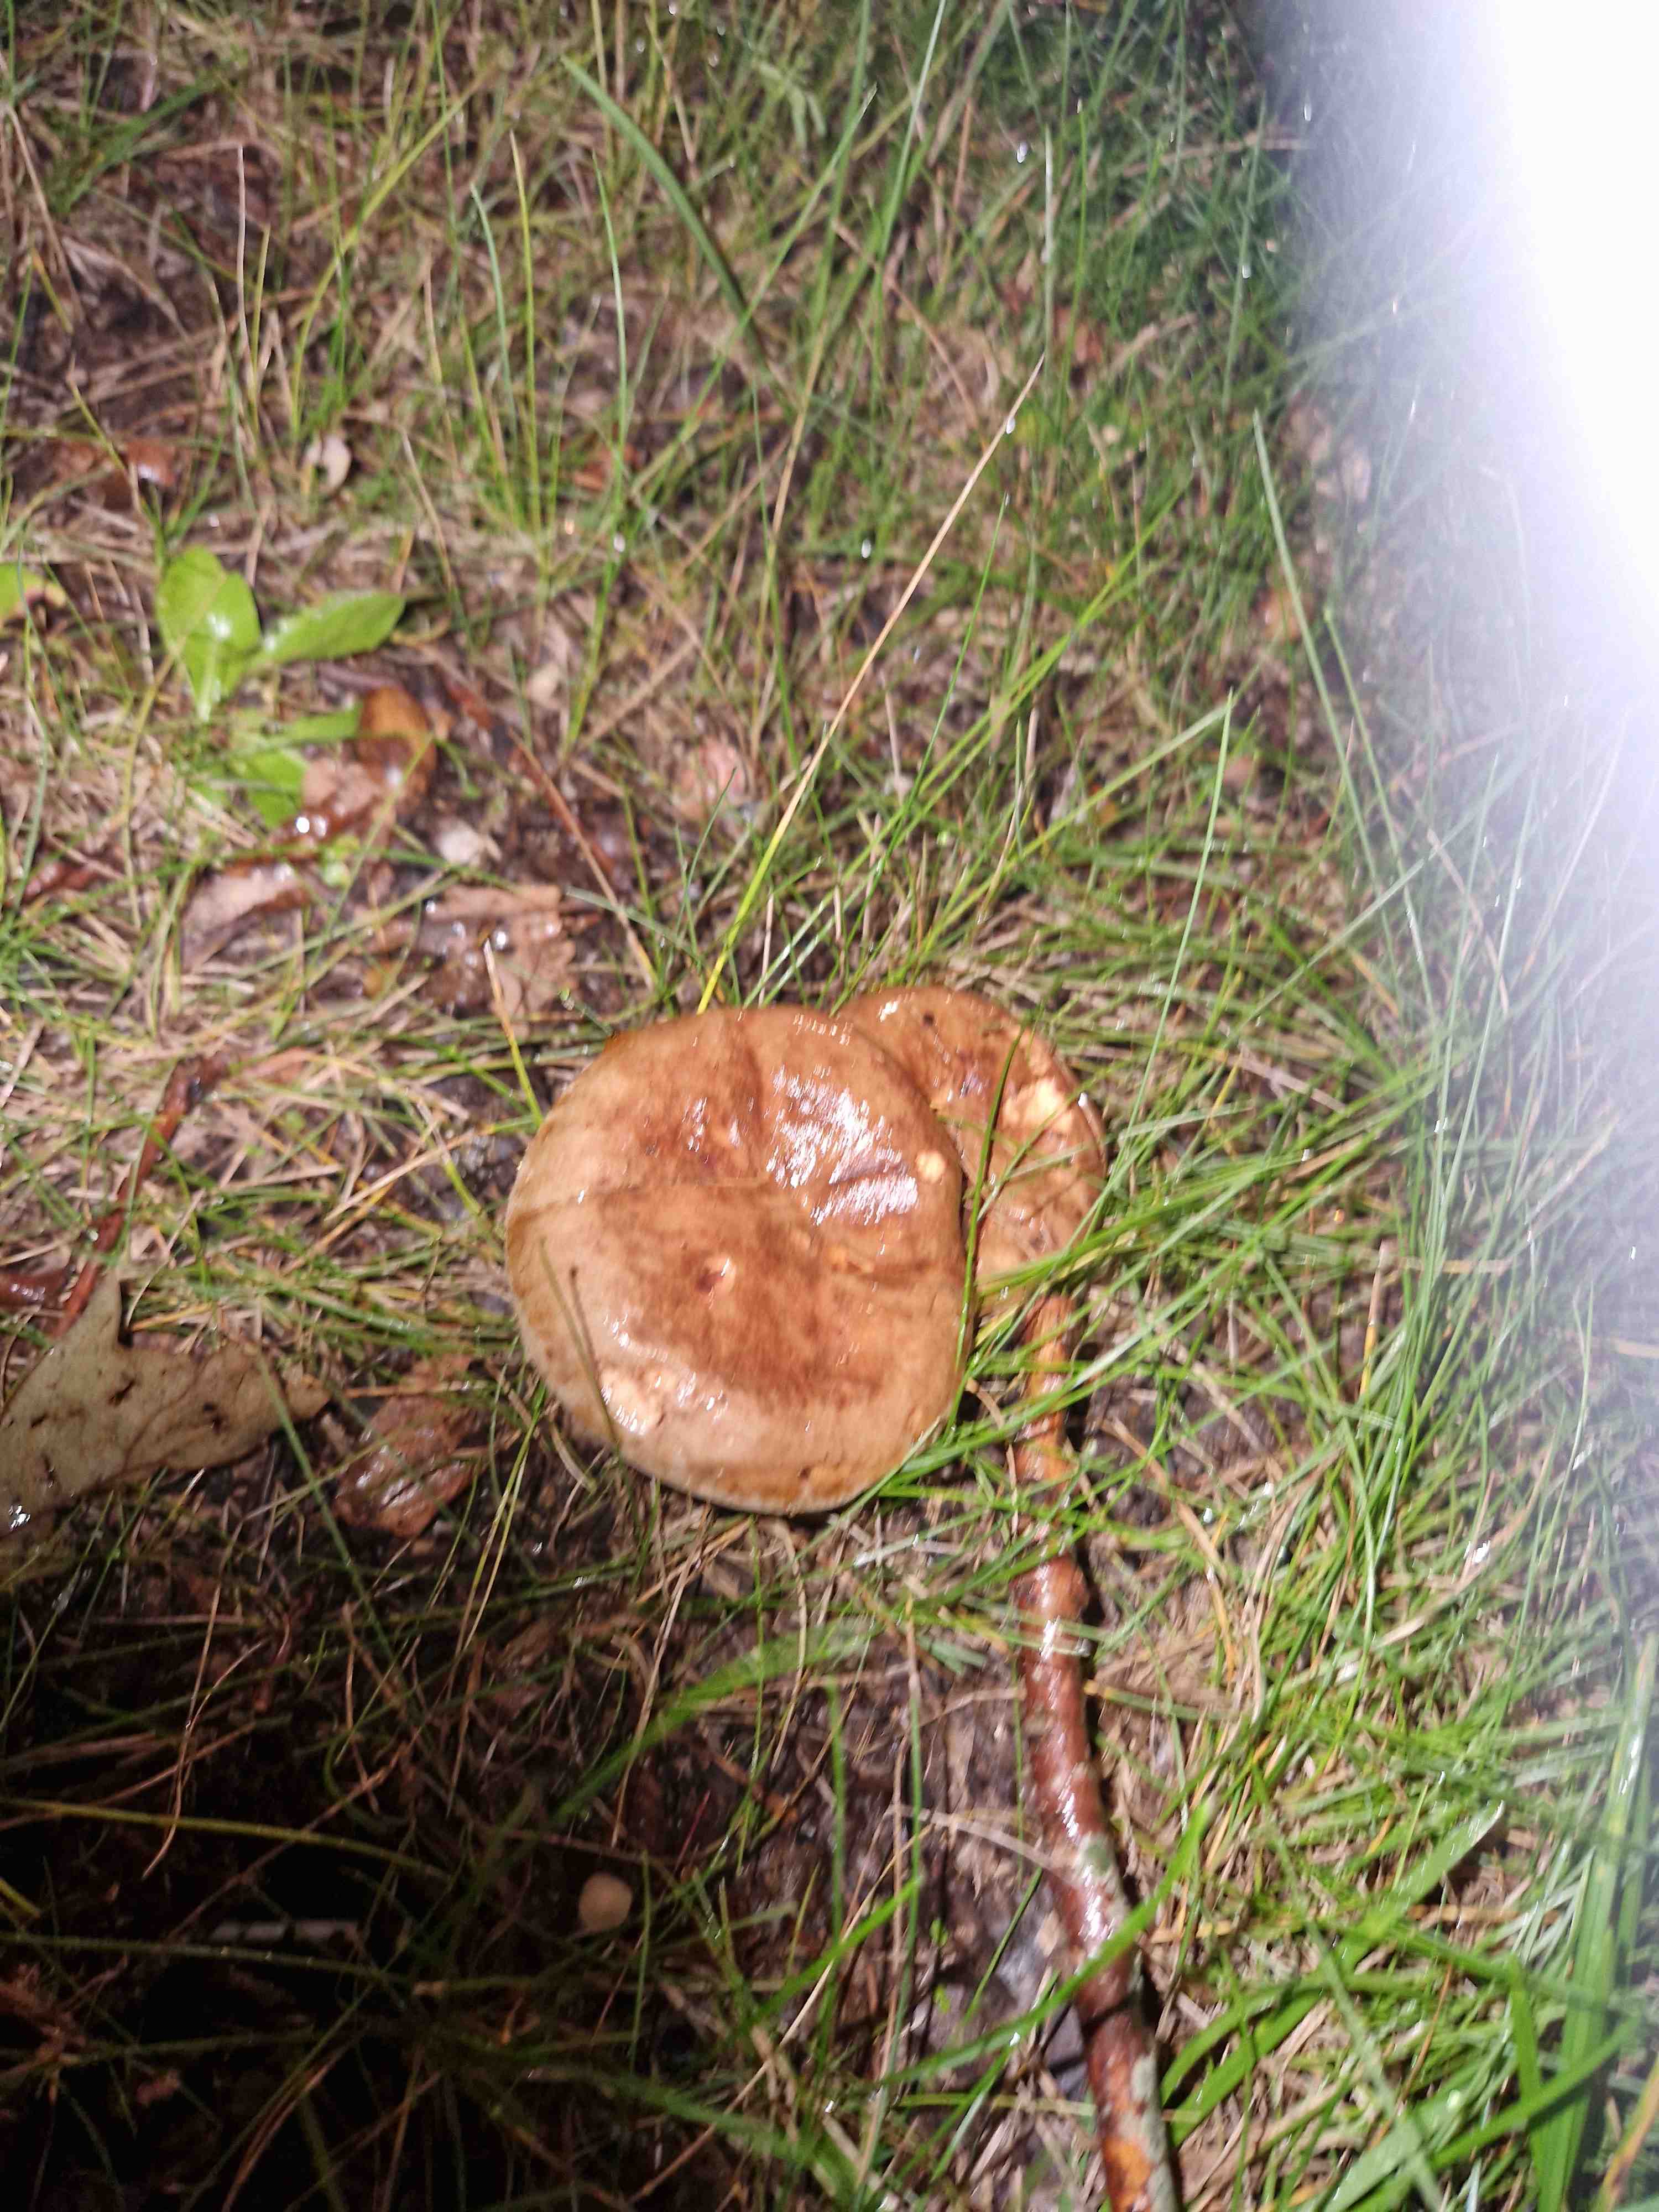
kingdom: Fungi
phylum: Basidiomycota
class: Agaricomycetes
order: Boletales
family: Paxillaceae
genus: Paxillus
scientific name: Paxillus
